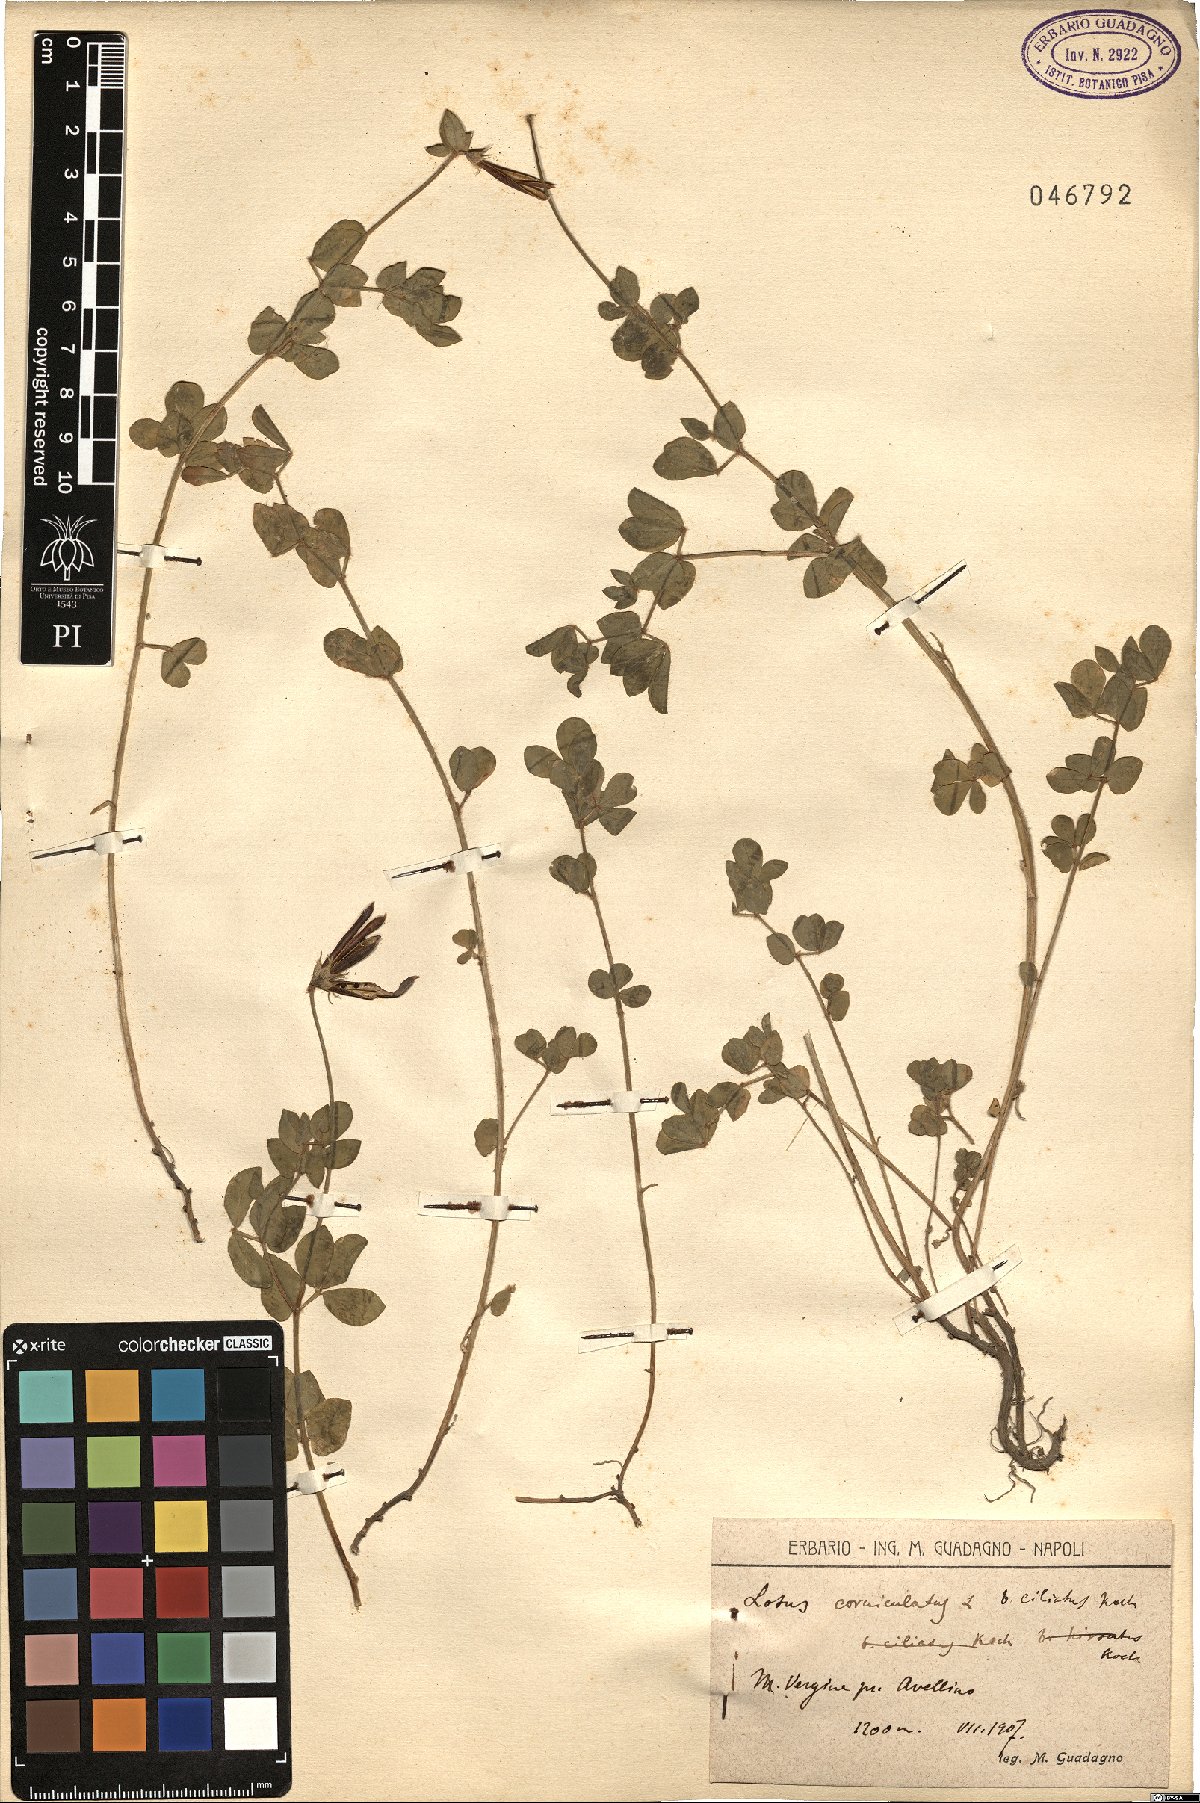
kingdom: Plantae
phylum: Tracheophyta
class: Magnoliopsida
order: Fabales
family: Fabaceae
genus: Lotus
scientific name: Lotus angustissimus
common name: Slender bird's-foot trefoil
